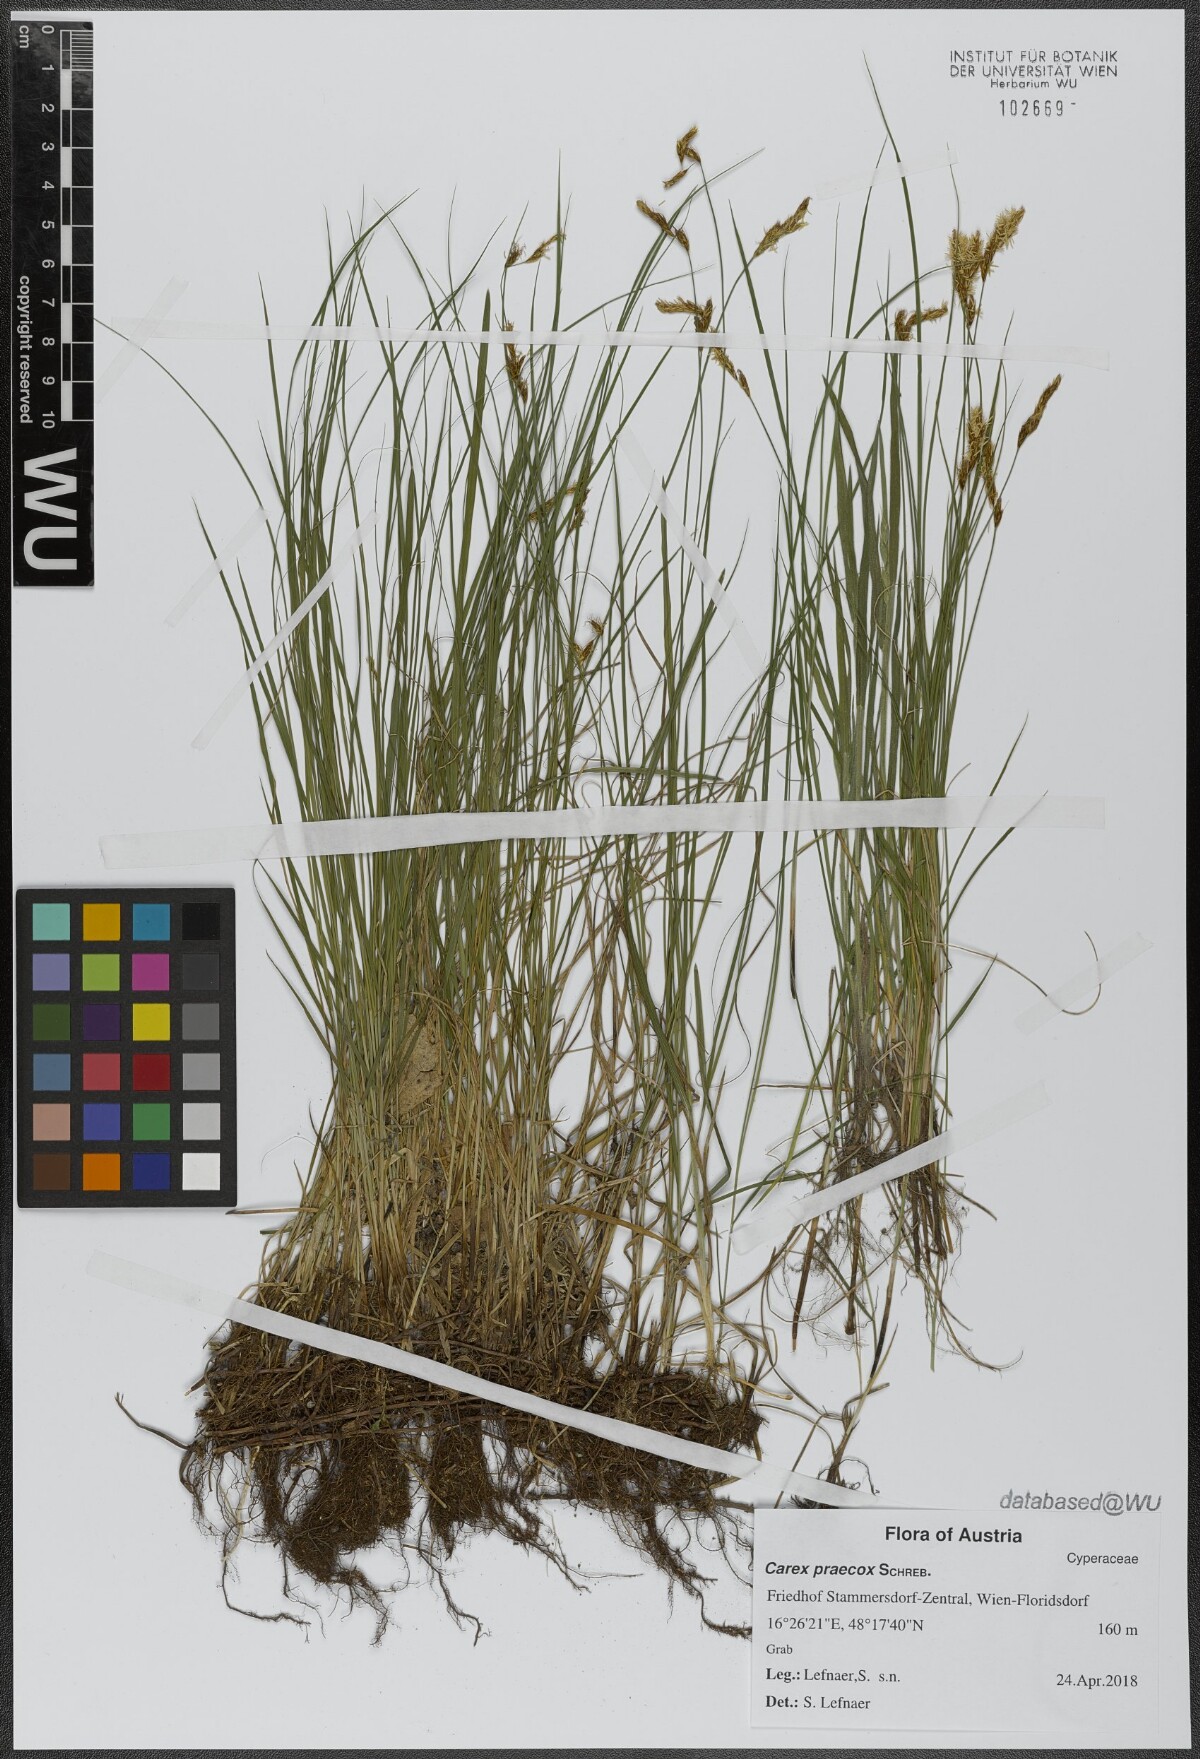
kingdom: Plantae
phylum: Tracheophyta
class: Liliopsida
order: Poales
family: Cyperaceae
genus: Carex
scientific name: Carex praecox
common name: Early sedge
